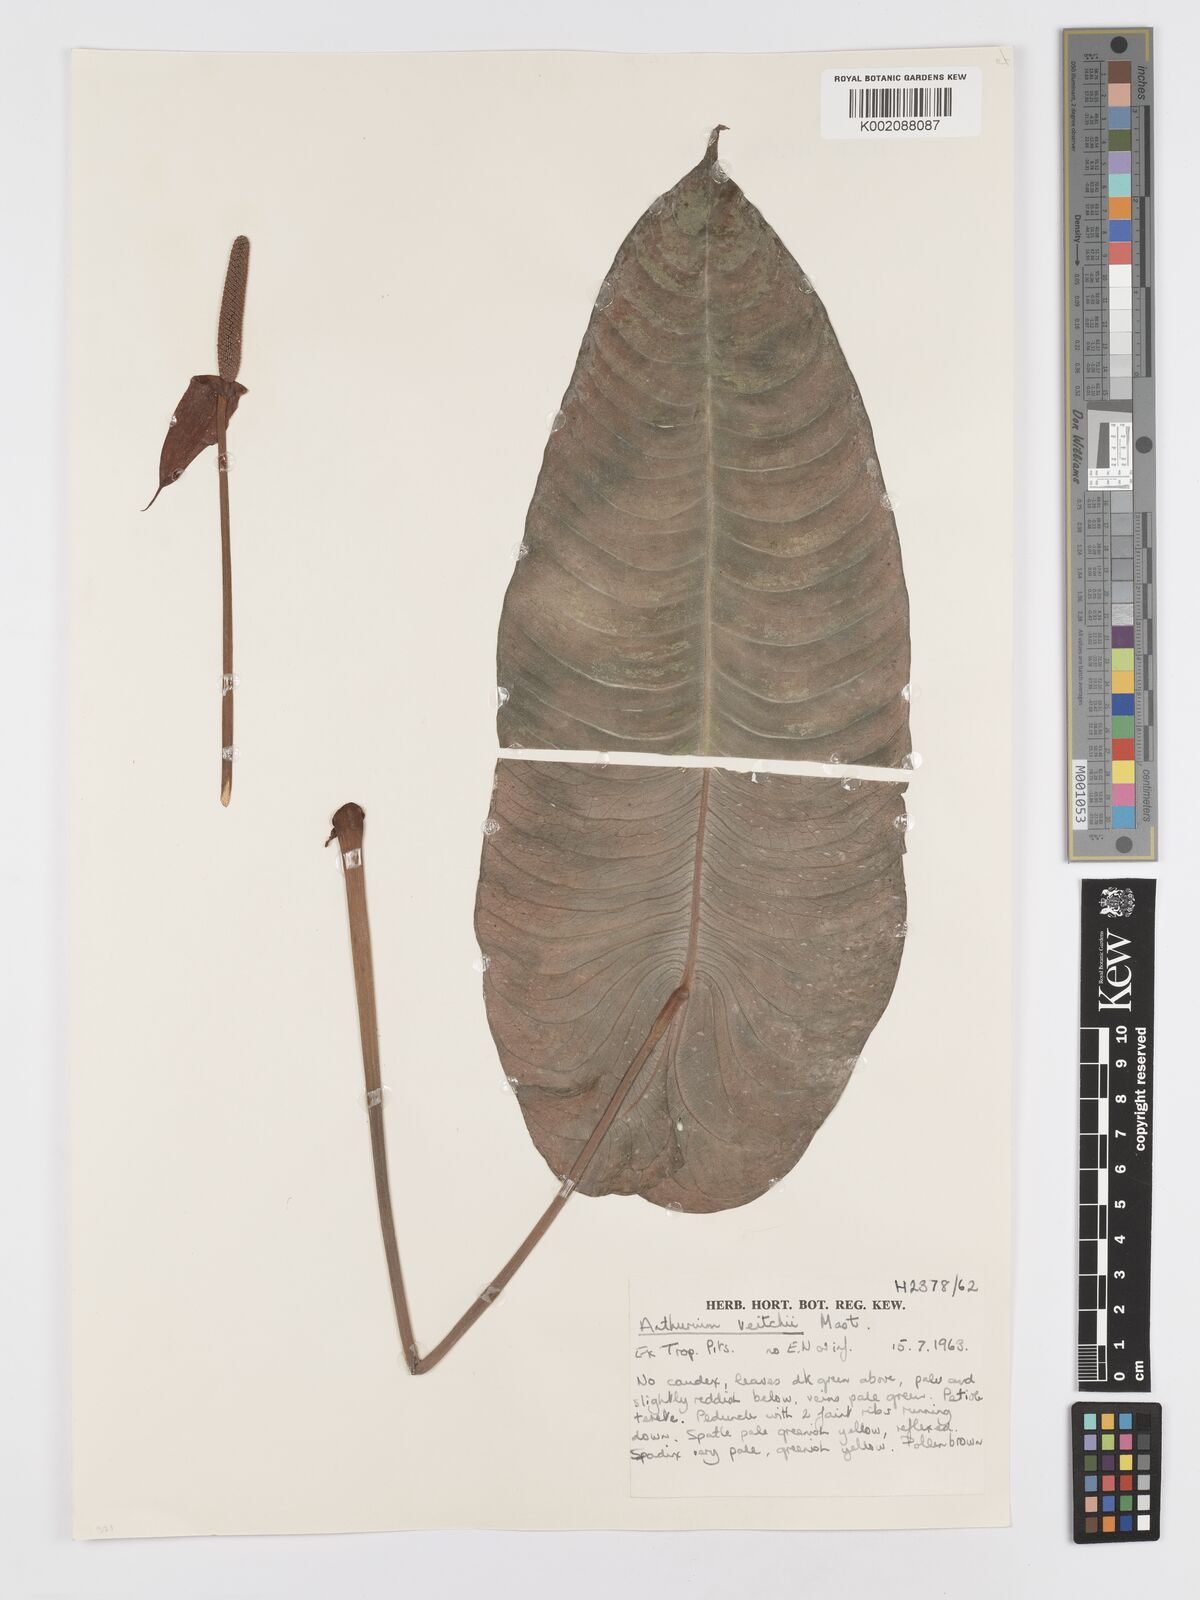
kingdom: Plantae
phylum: Tracheophyta
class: Liliopsida
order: Alismatales
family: Araceae
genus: Anthurium
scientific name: Anthurium veitchii
